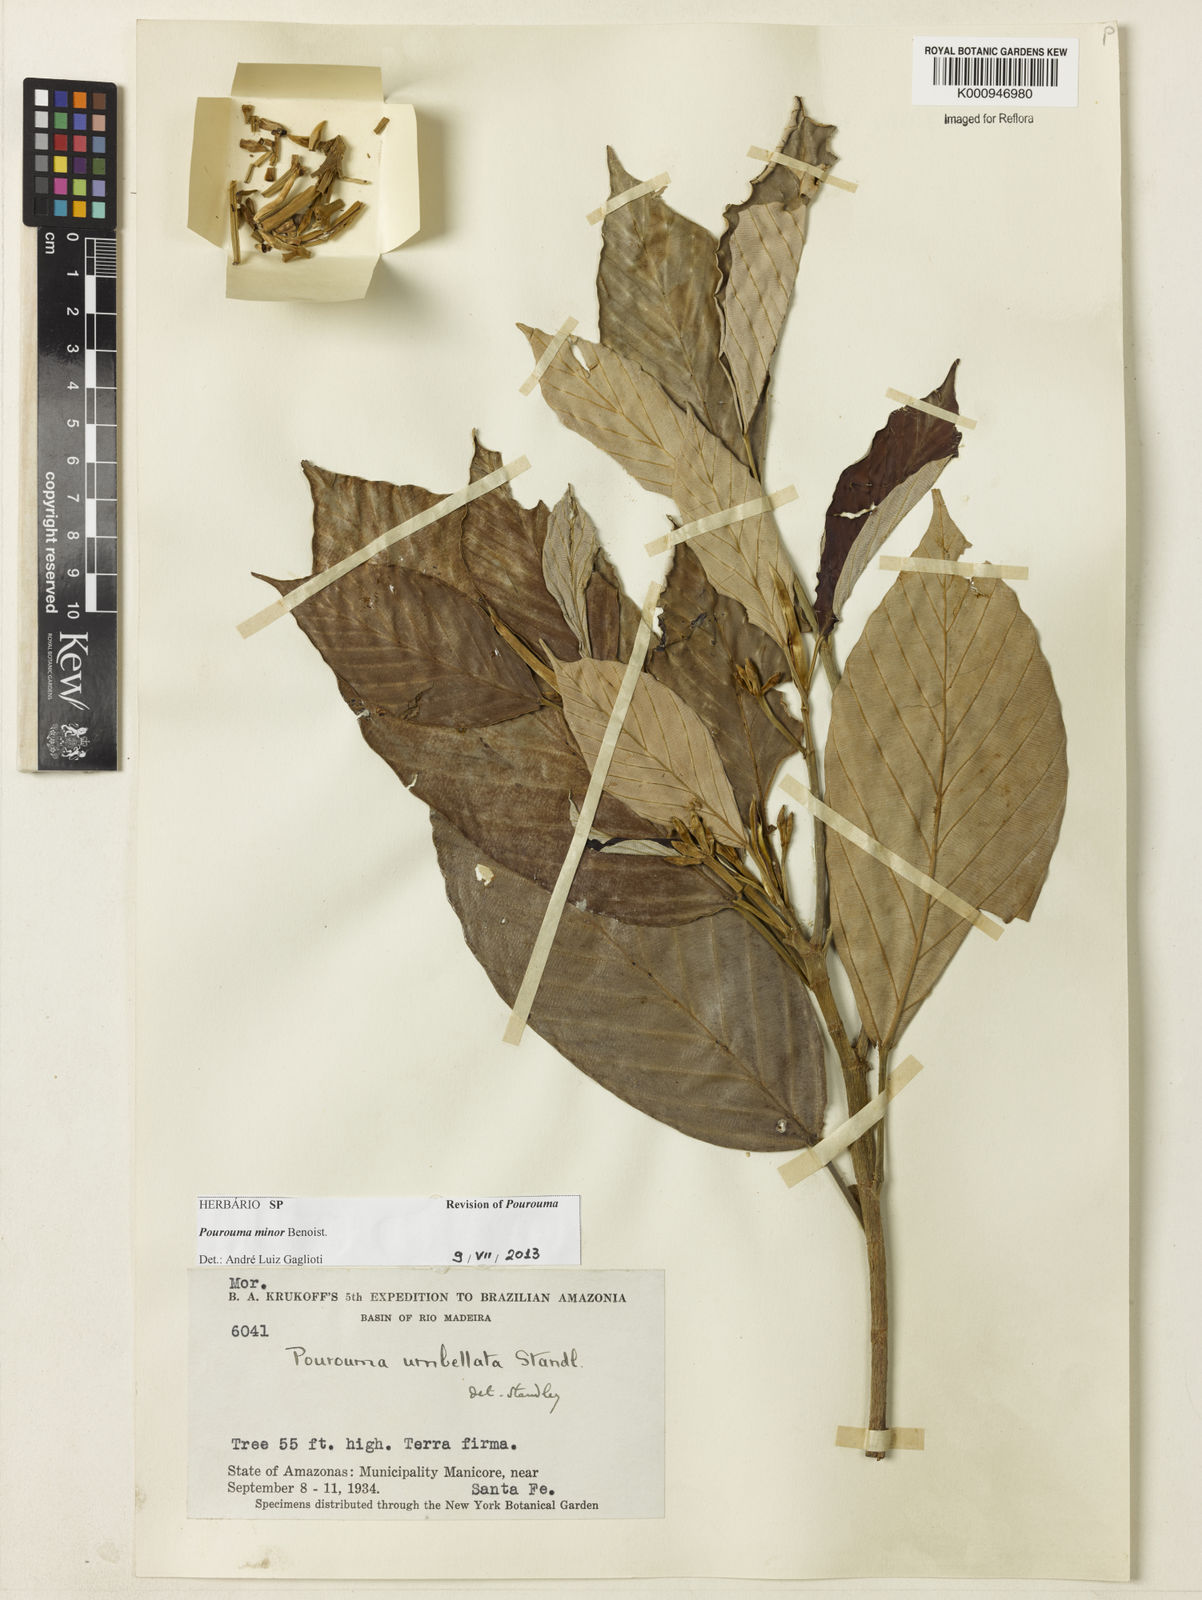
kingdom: Plantae
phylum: Tracheophyta
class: Magnoliopsida
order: Rosales
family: Urticaceae
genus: Pourouma
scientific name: Pourouma minor
